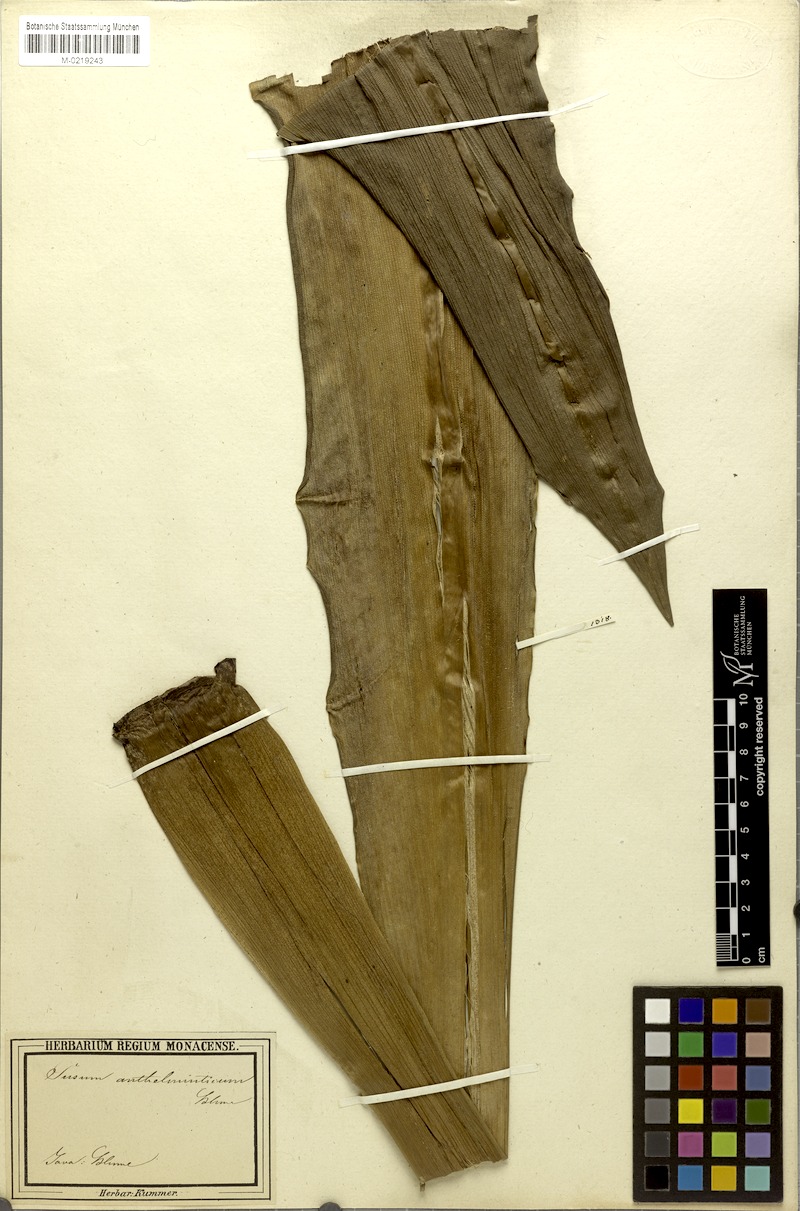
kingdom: Plantae
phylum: Tracheophyta
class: Liliopsida
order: Commelinales
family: Hanguanaceae
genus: Hanguana
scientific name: Hanguana malayana
